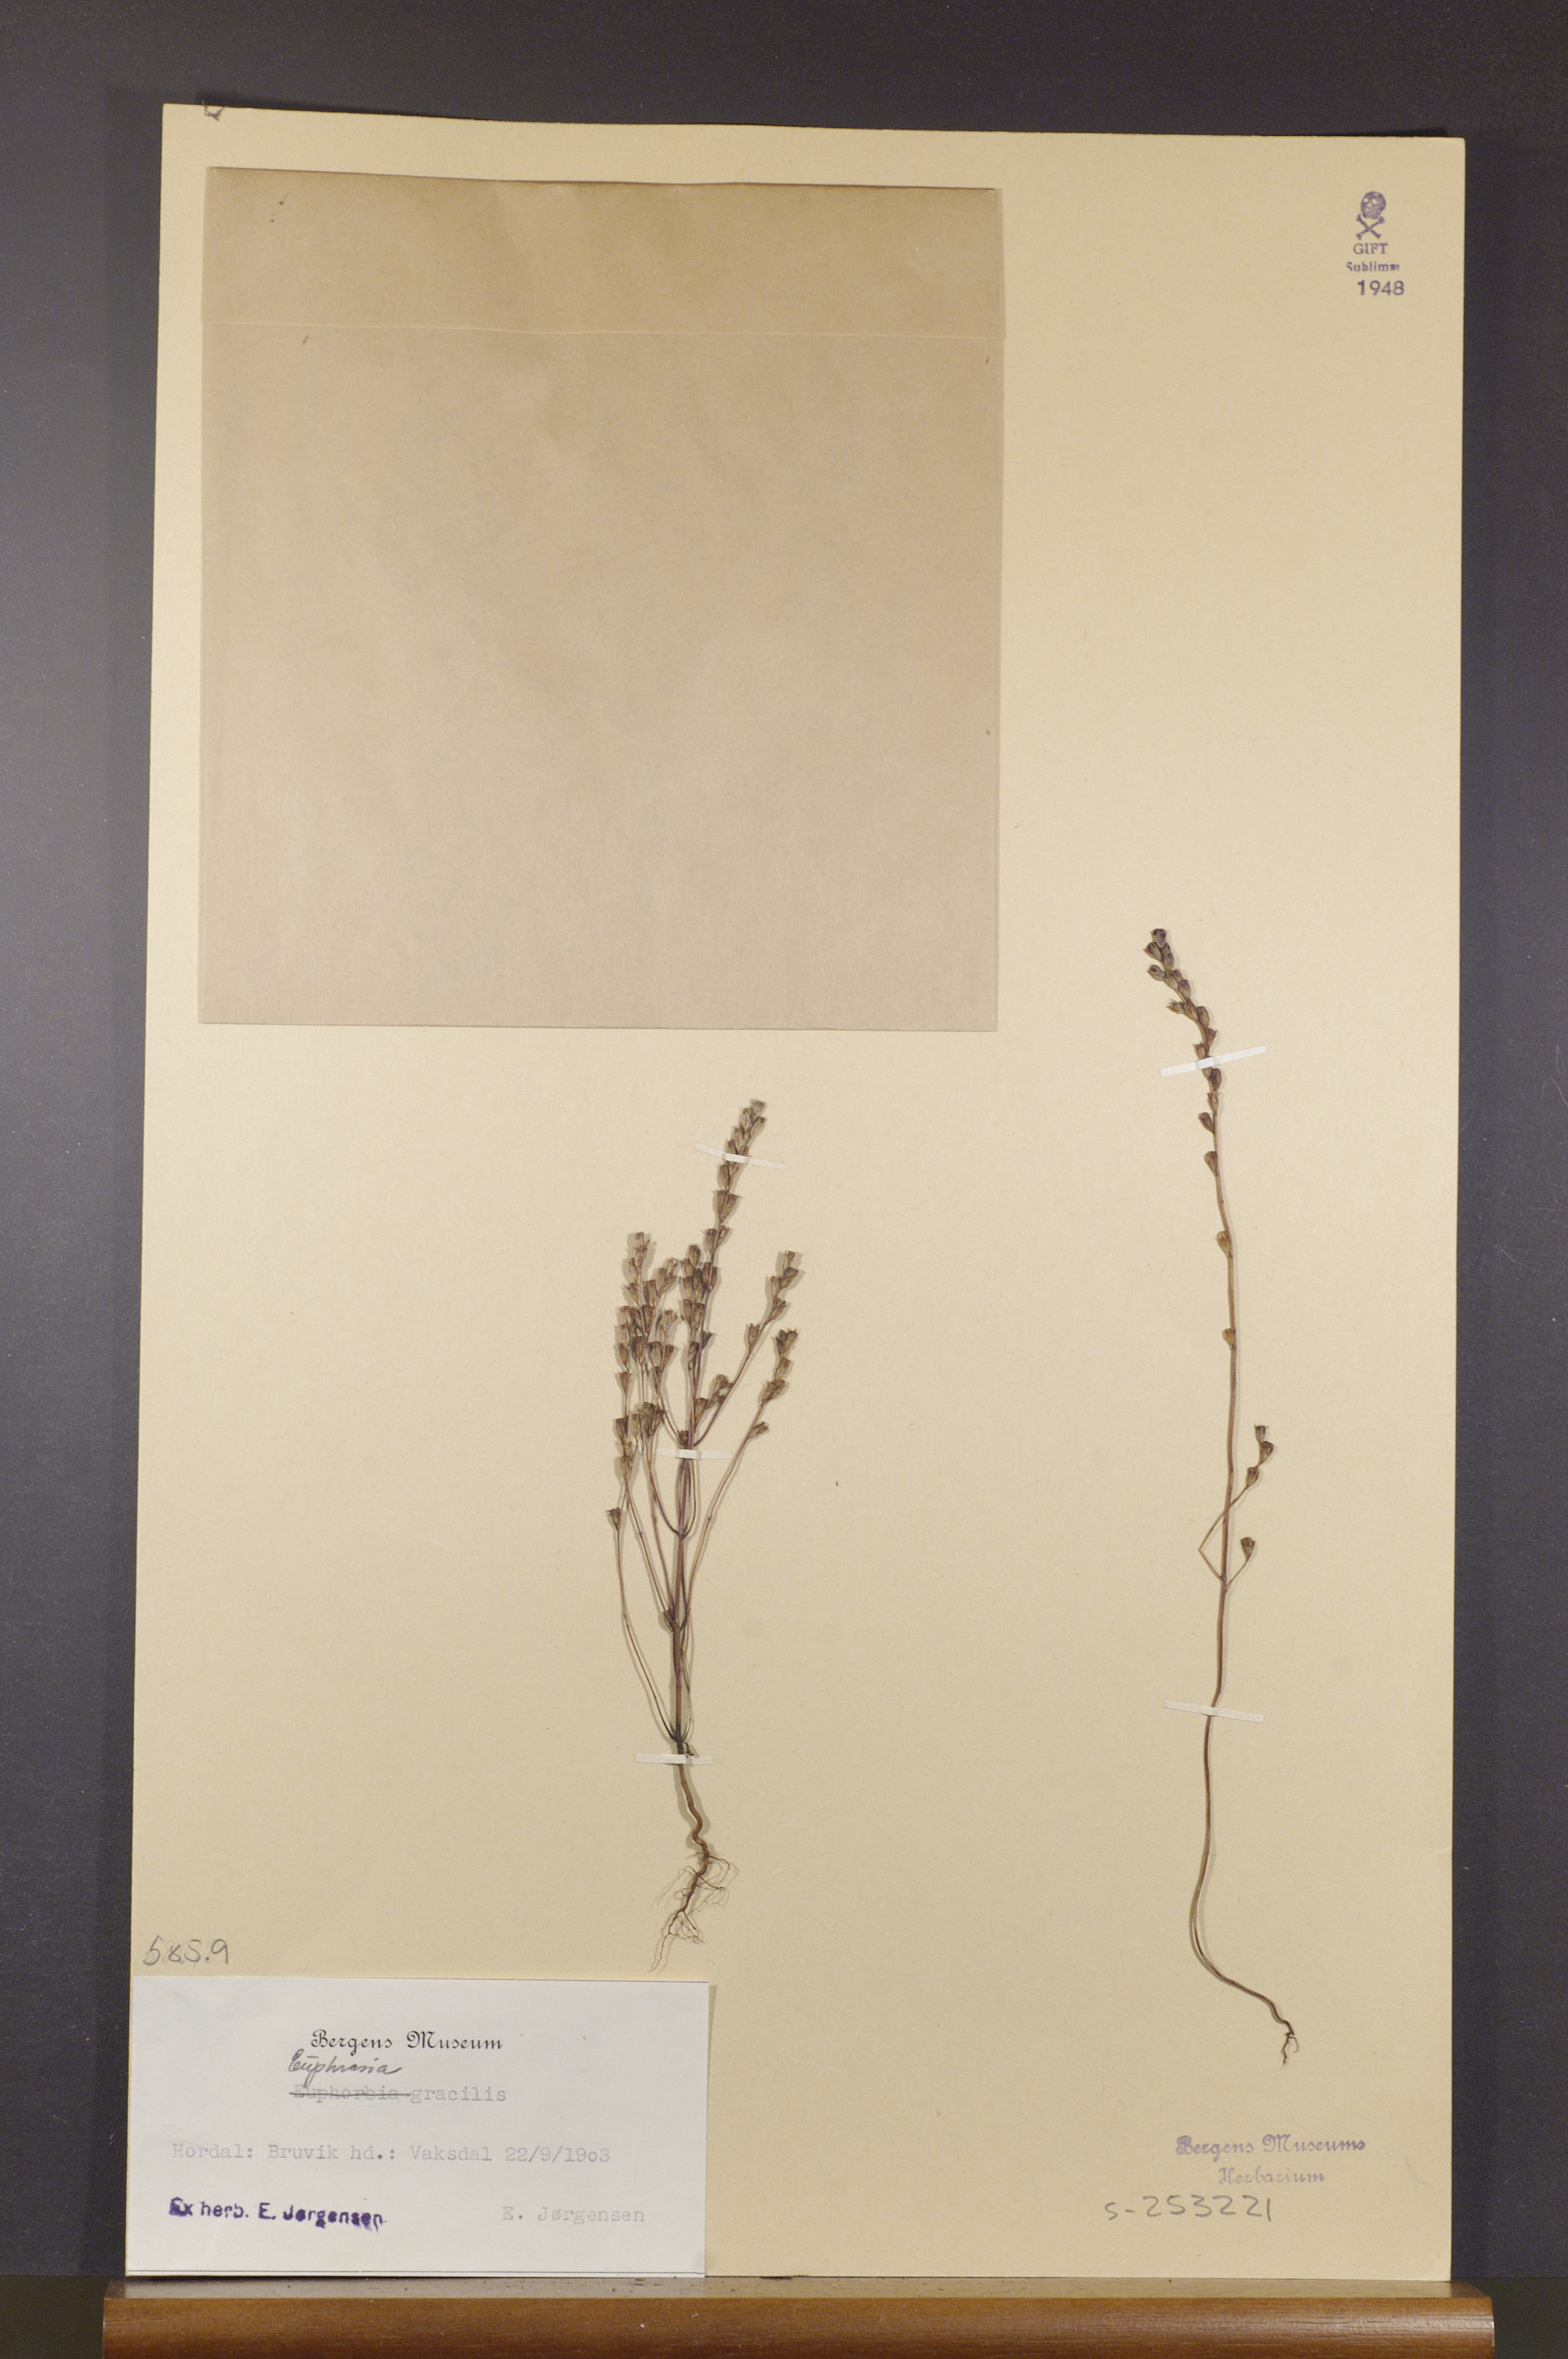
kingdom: Plantae
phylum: Tracheophyta
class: Magnoliopsida
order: Lamiales
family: Orobanchaceae
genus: Euphrasia
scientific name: Euphrasia micrantha
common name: Northern eyebright
